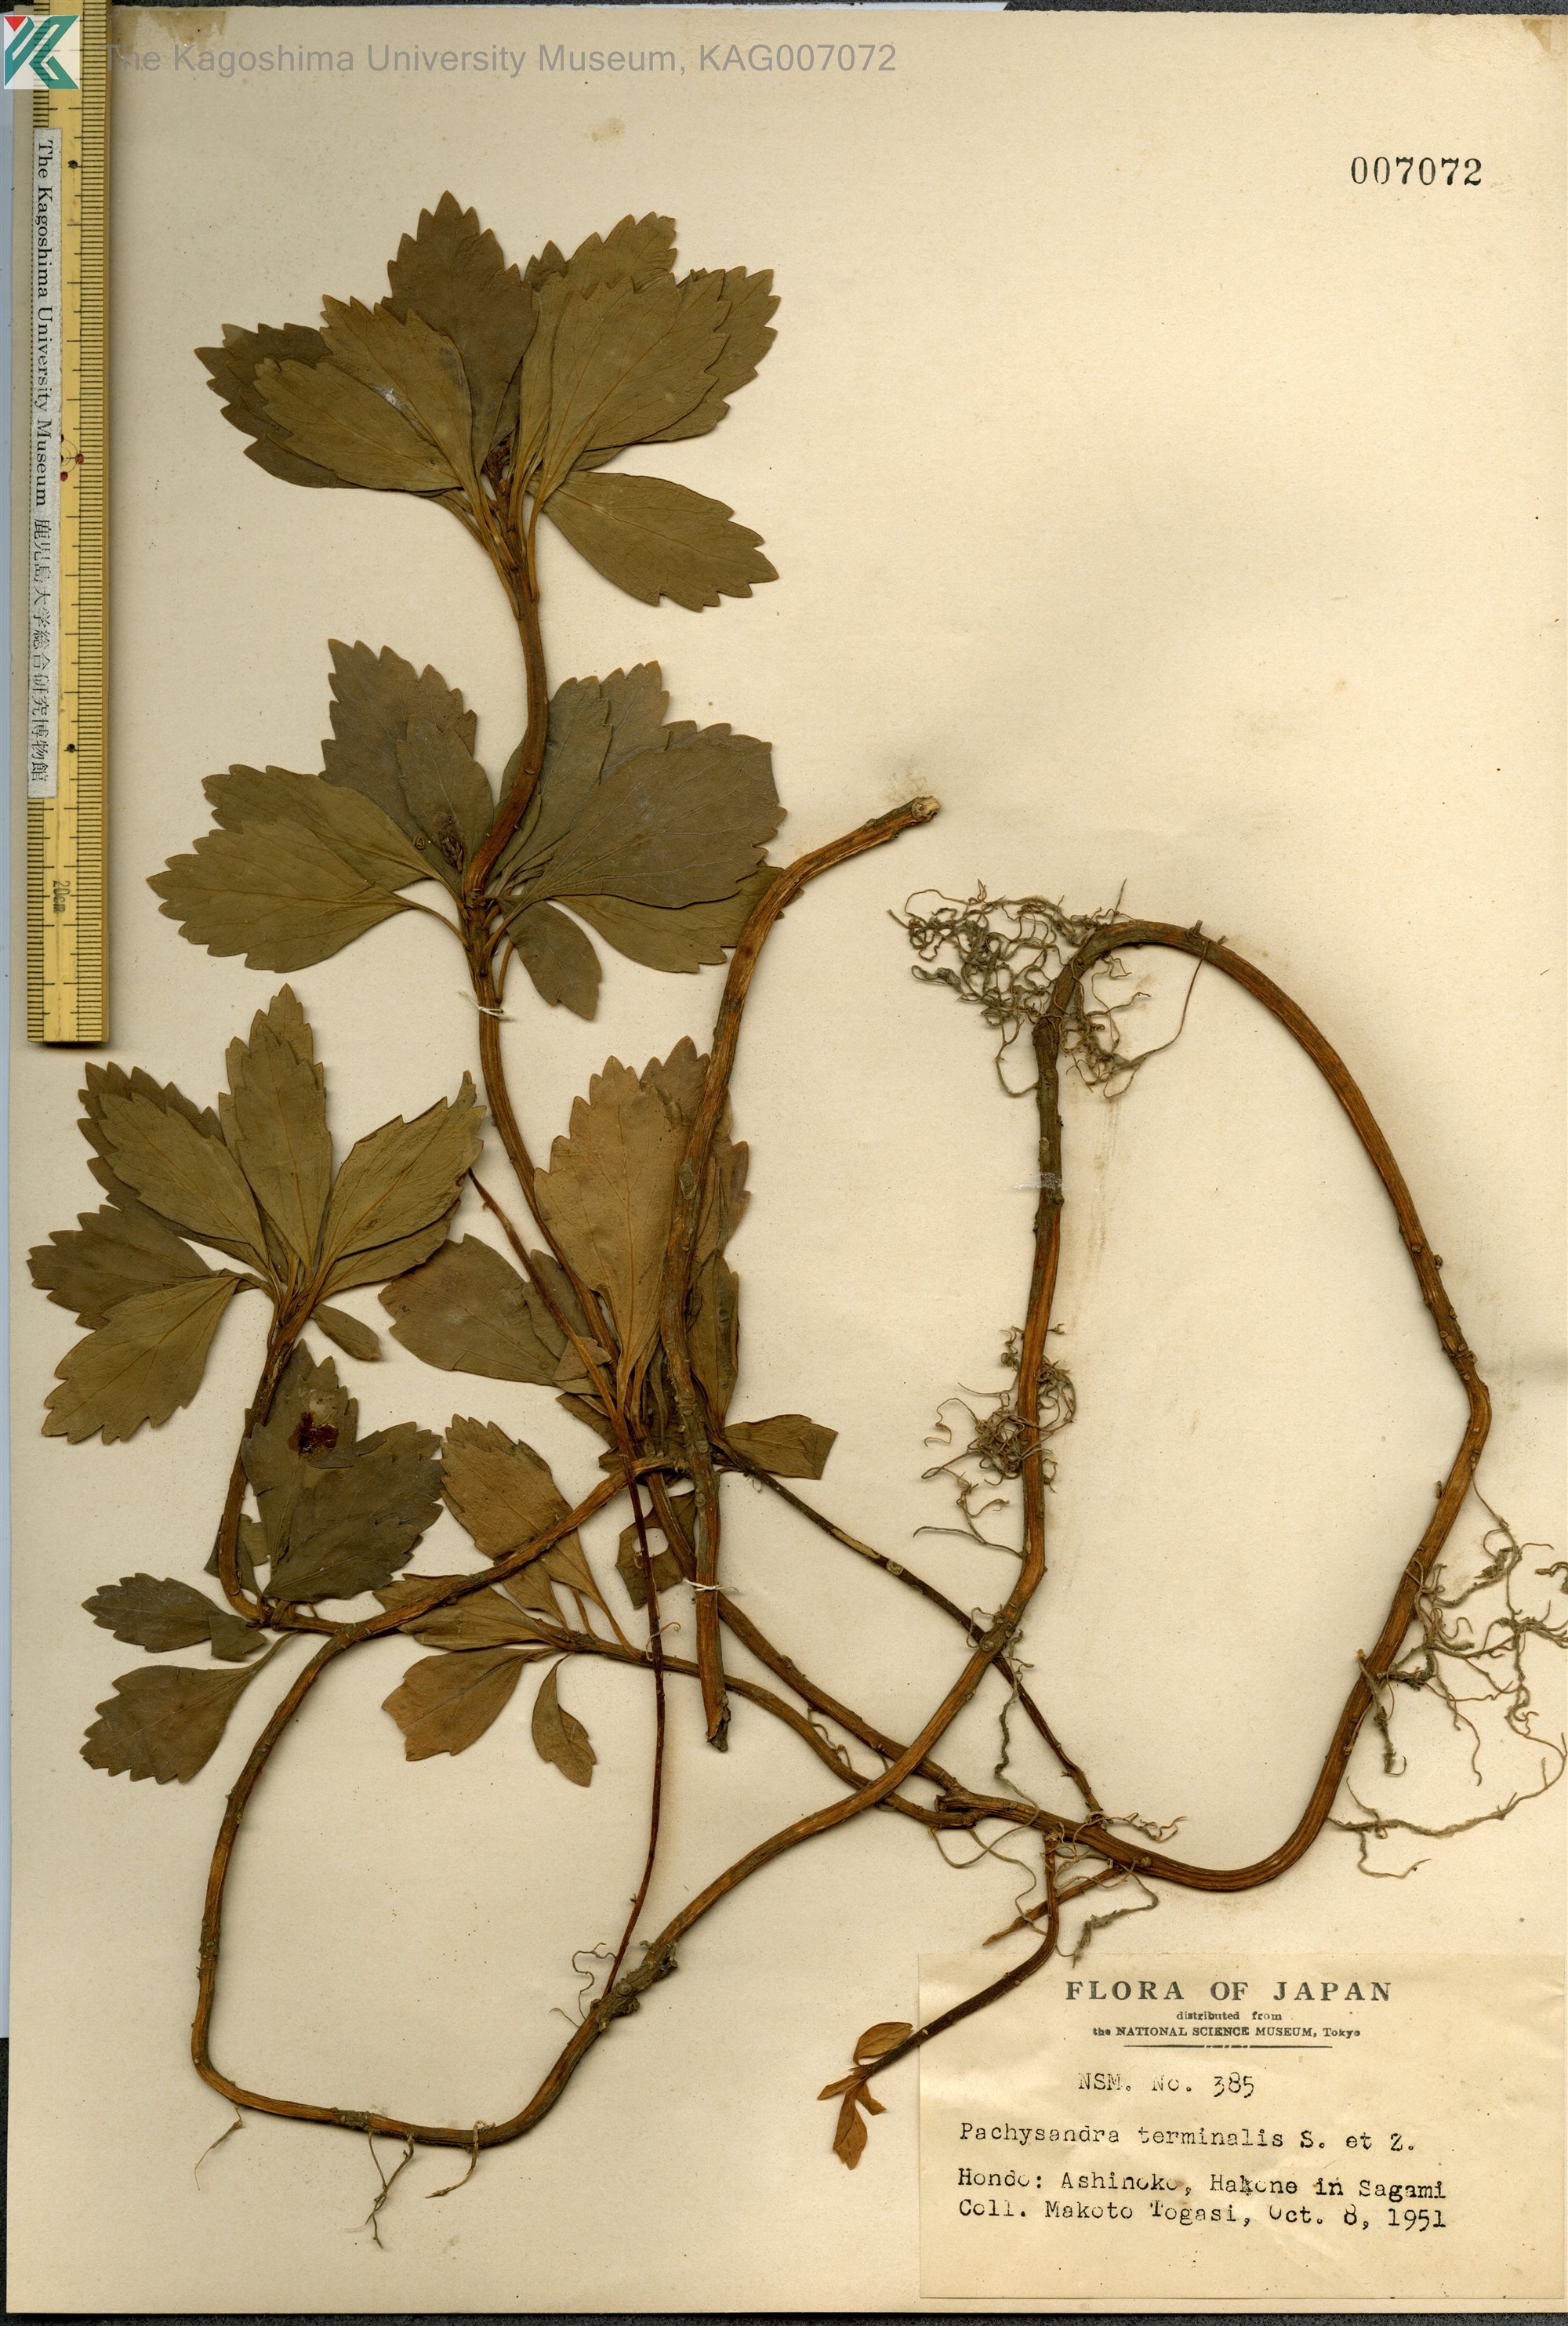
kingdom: Plantae
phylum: Tracheophyta
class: Magnoliopsida
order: Buxales
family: Buxaceae
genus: Pachysandra
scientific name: Pachysandra terminalis
